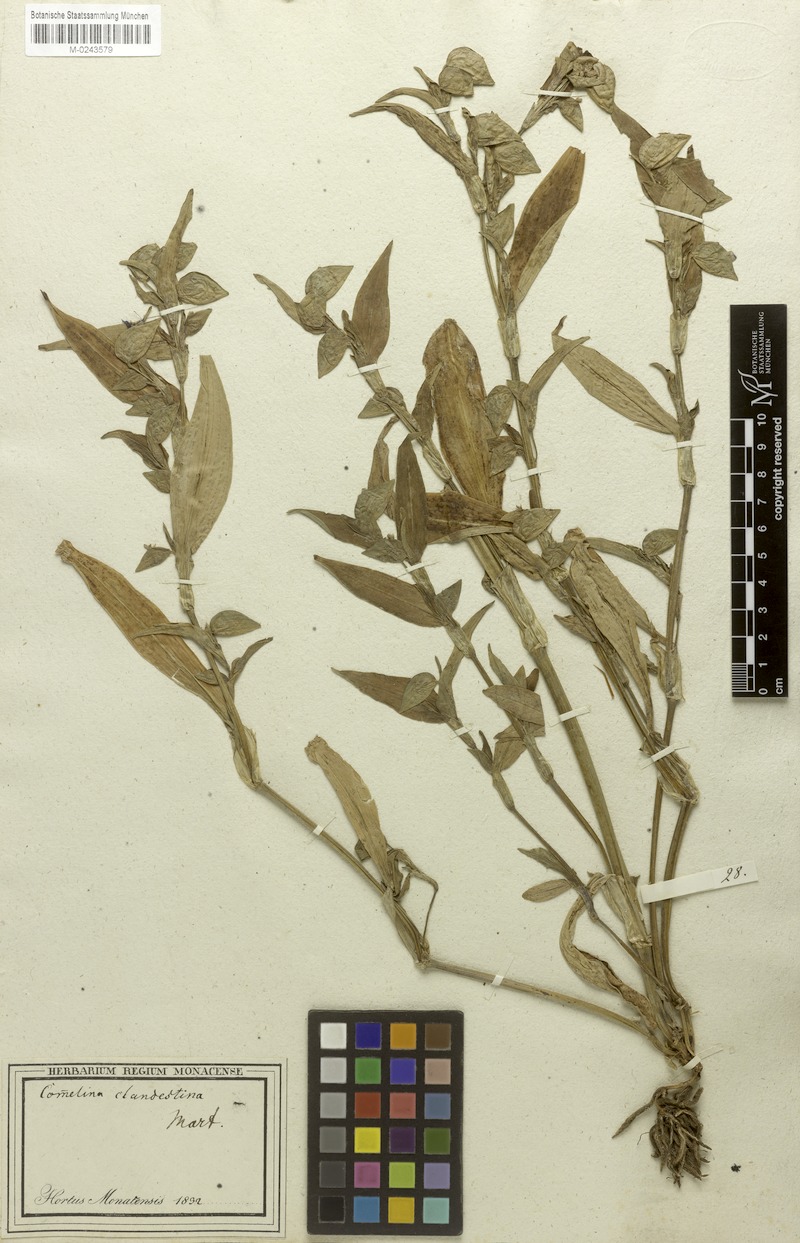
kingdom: Plantae
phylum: Tracheophyta
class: Liliopsida
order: Commelinales
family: Commelinaceae
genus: Commelina
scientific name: Commelina tuberosa
